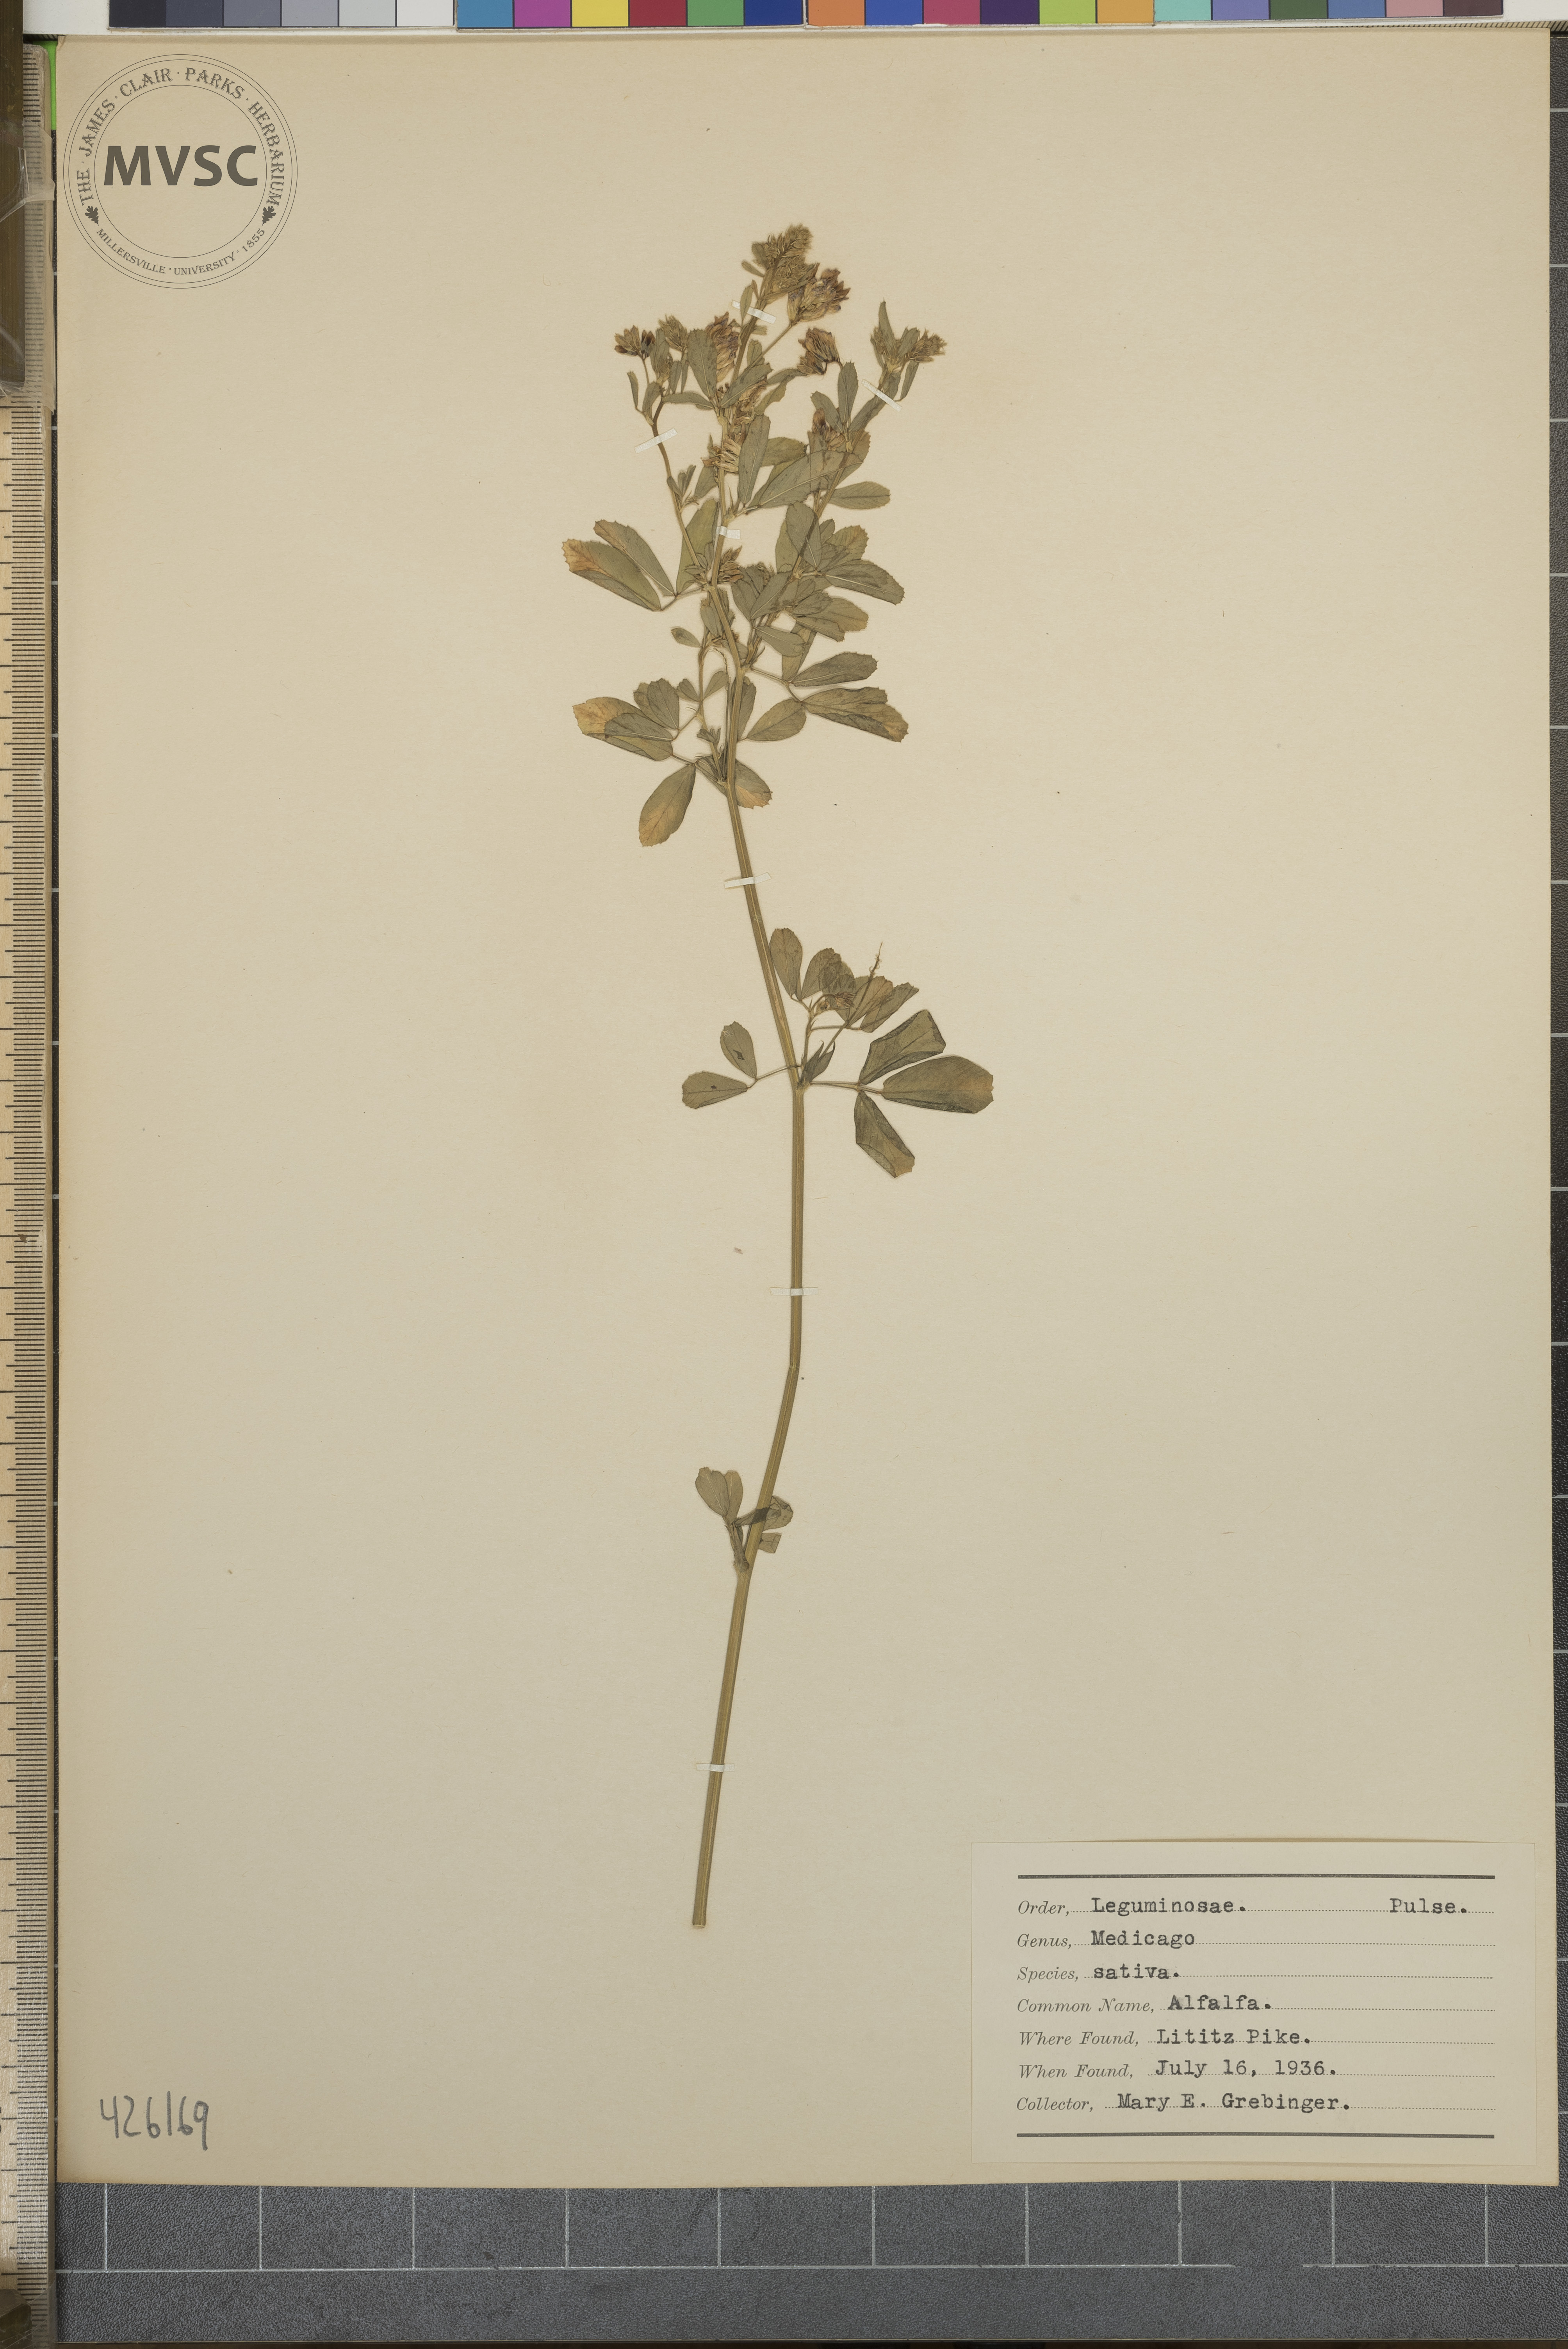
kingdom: Plantae
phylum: Tracheophyta
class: Magnoliopsida
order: Fabales
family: Fabaceae
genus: Medicago
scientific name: Medicago sativa
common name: Alfalfa
